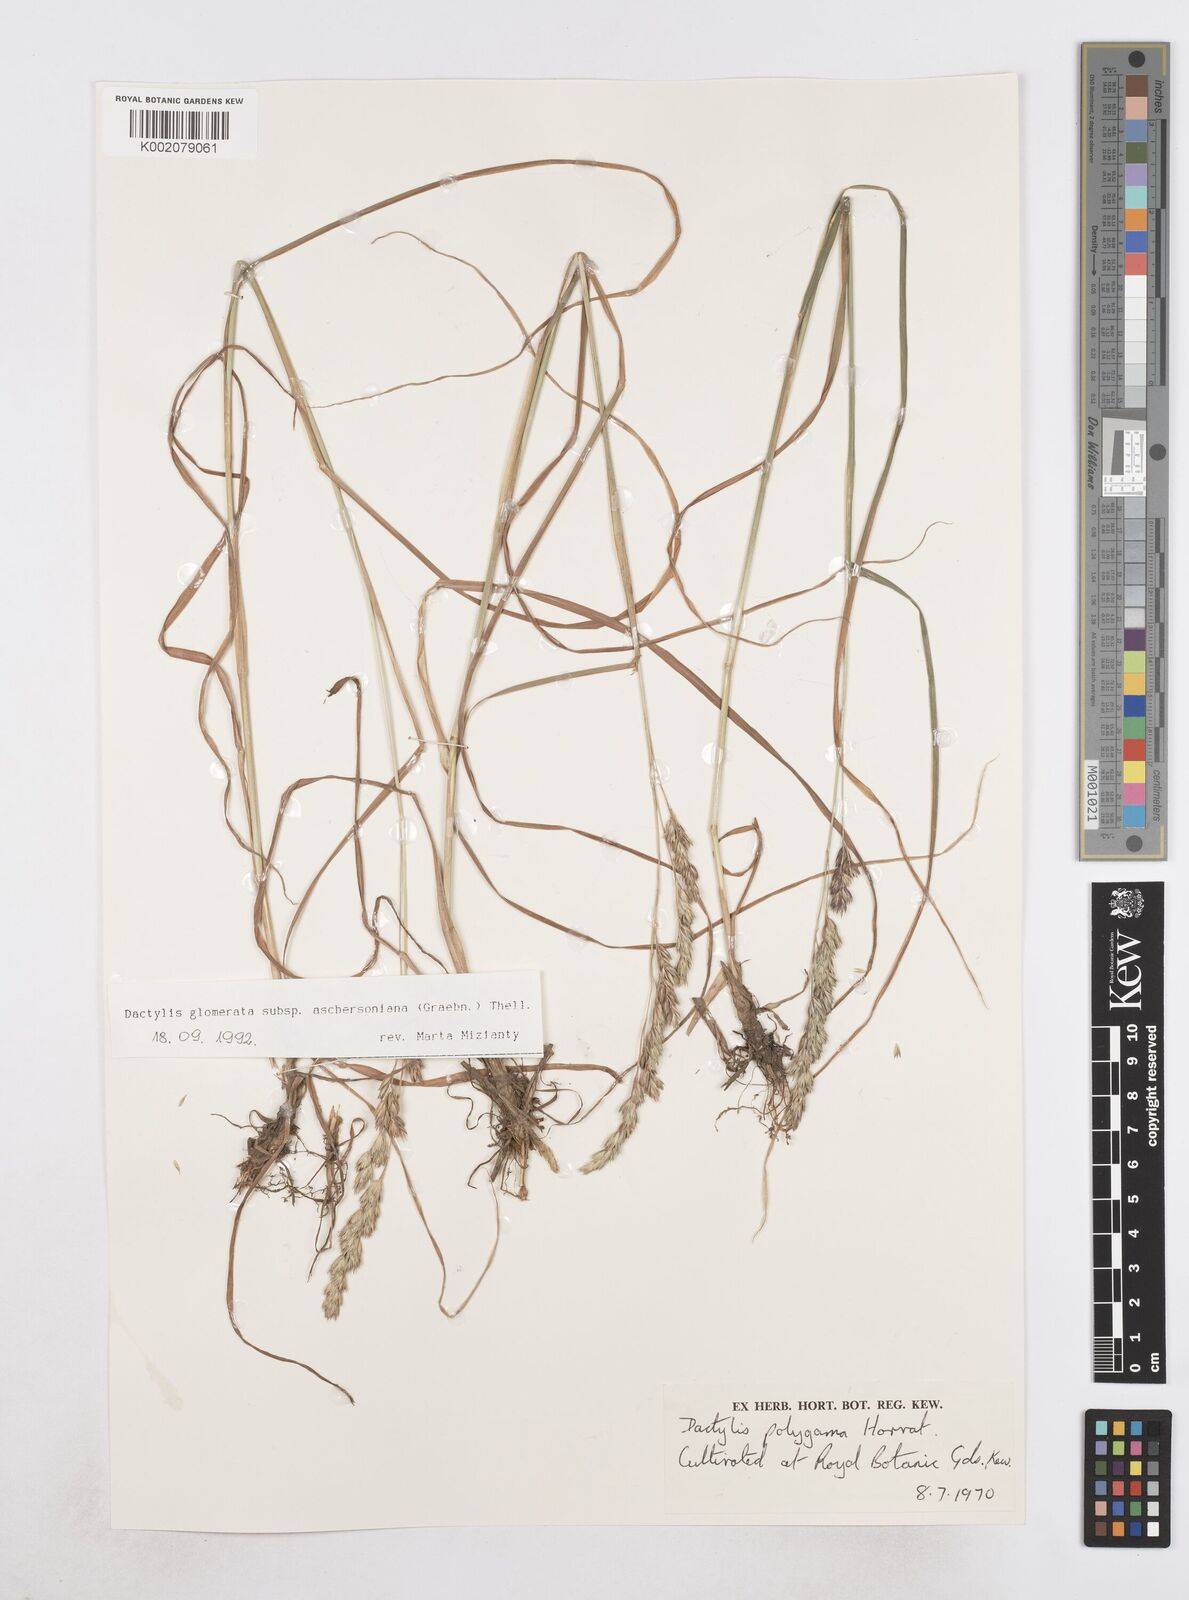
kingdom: Plantae
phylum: Tracheophyta
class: Liliopsida
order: Poales
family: Poaceae
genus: Dactylis
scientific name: Dactylis glomerata
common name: Orchardgrass
